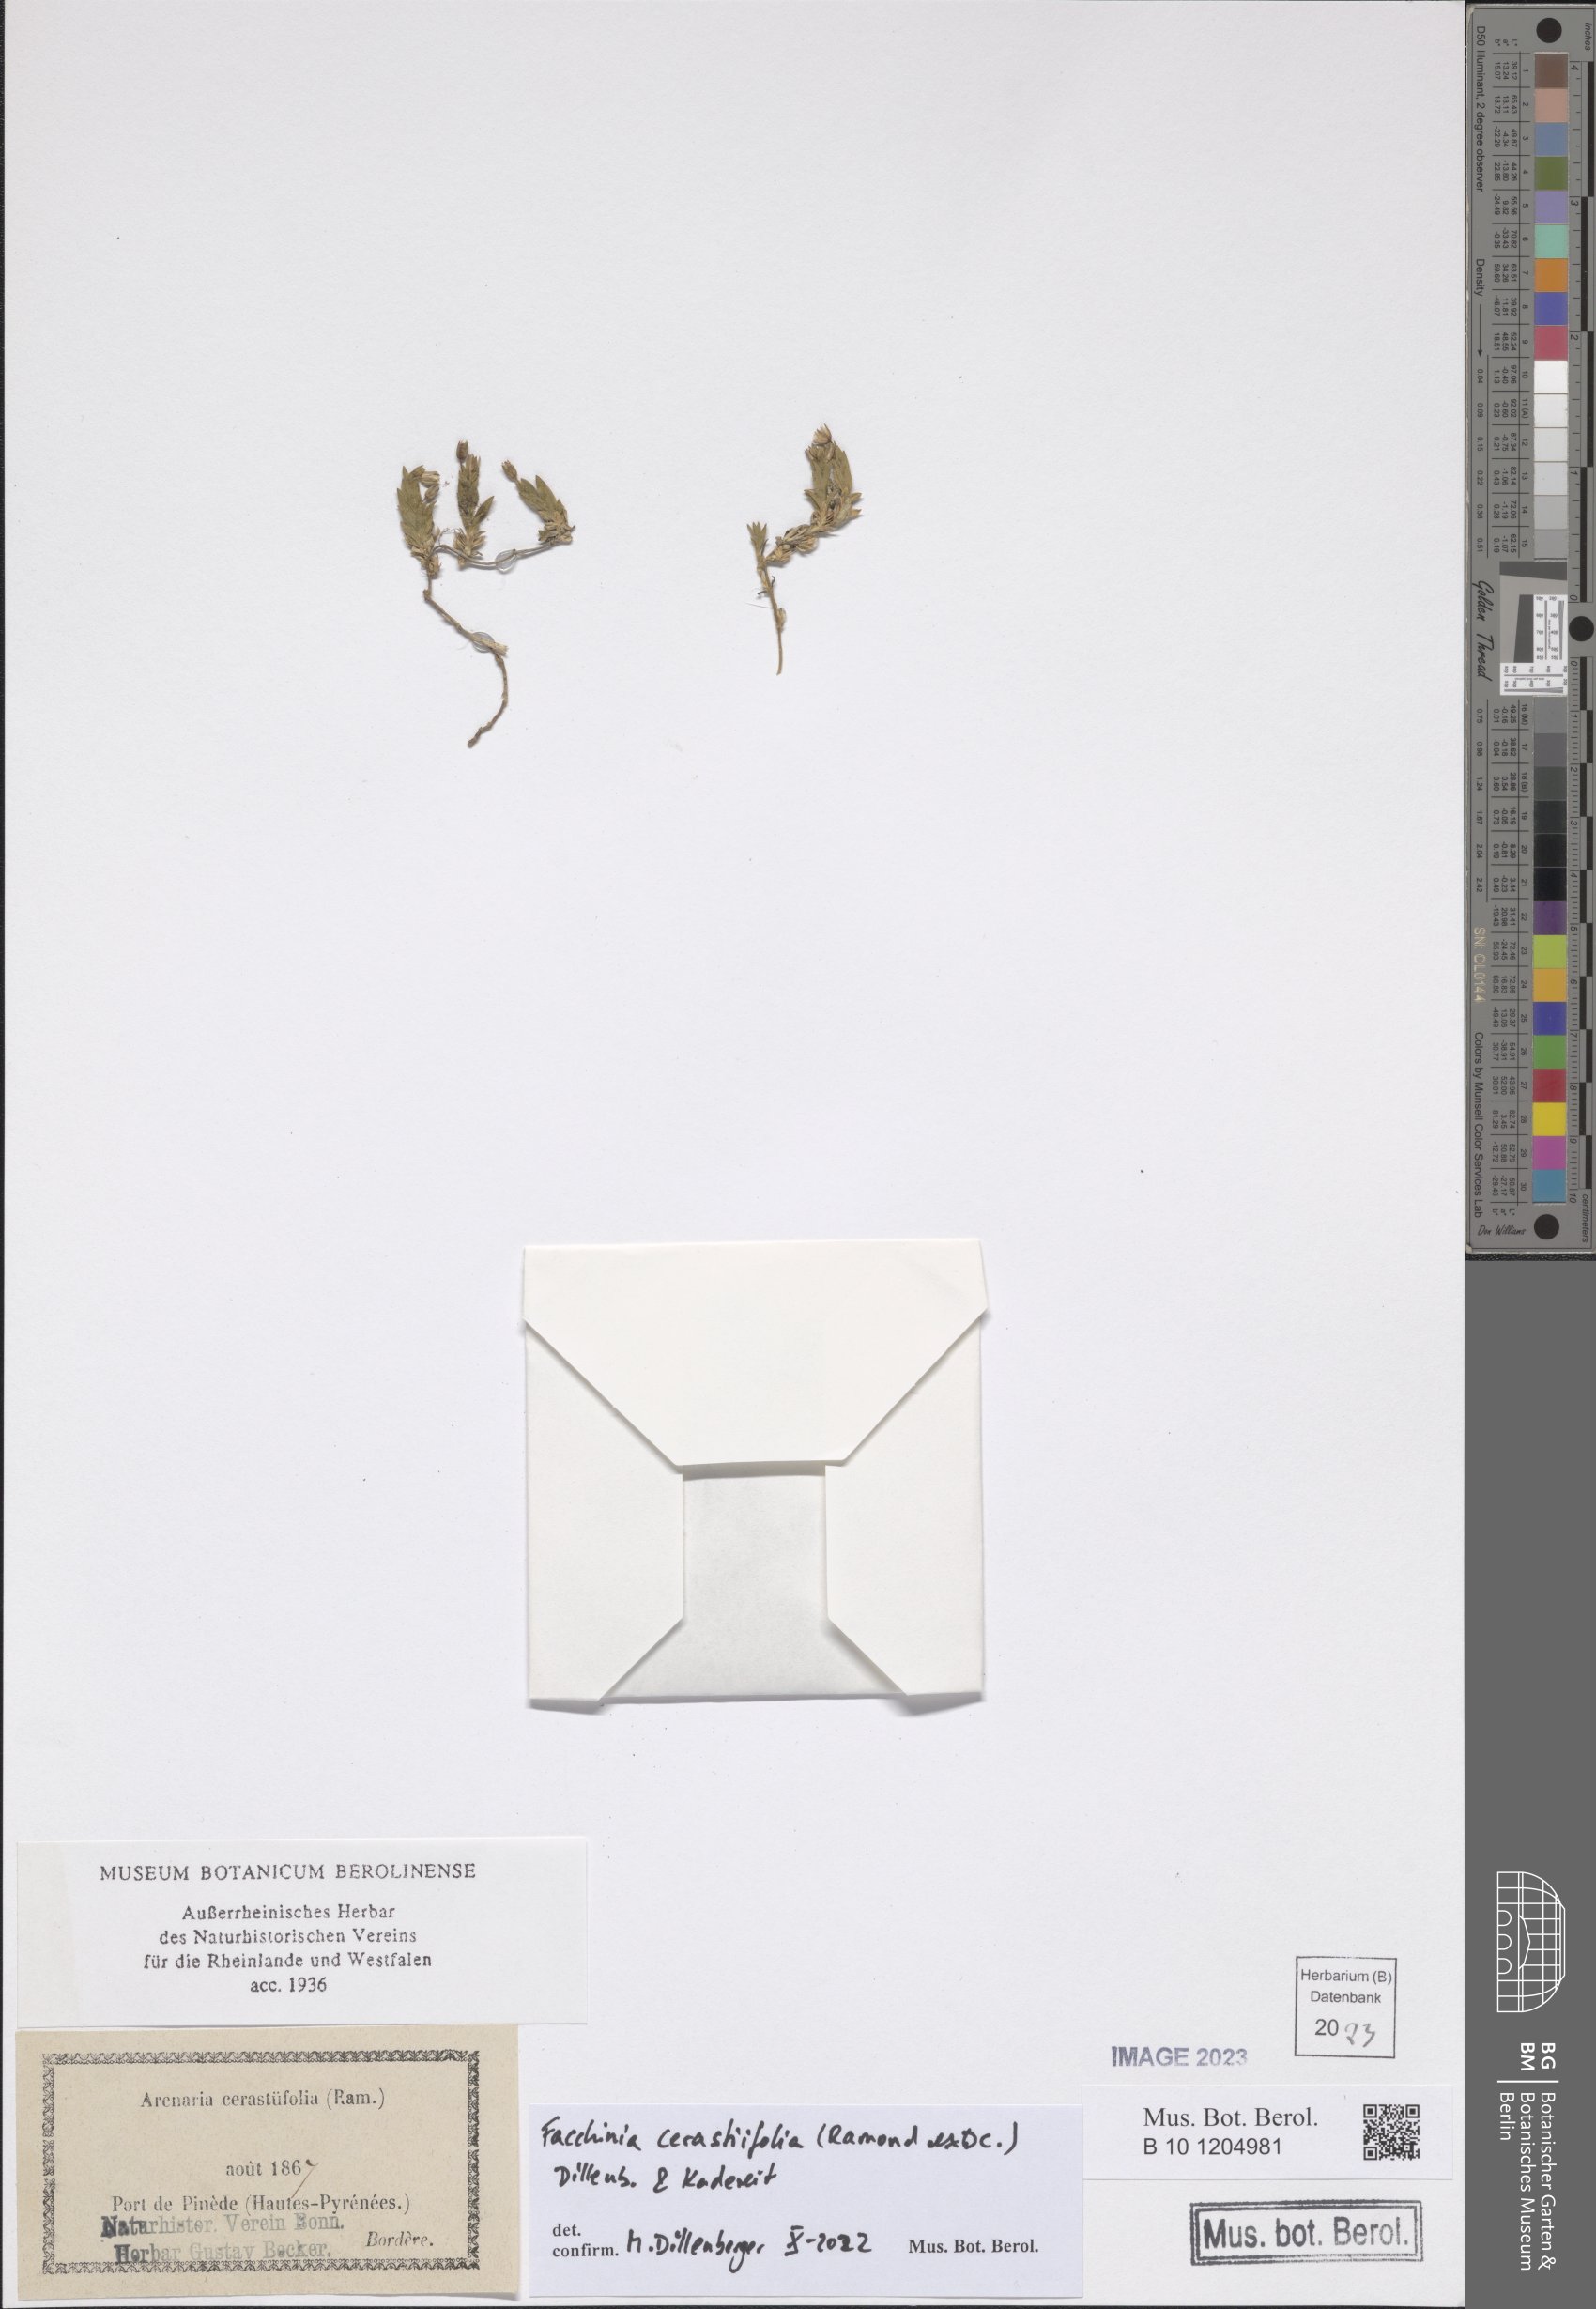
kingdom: Plantae
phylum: Tracheophyta
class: Magnoliopsida
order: Caryophyllales
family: Caryophyllaceae
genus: Facchinia
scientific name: Facchinia cerastiifolia
